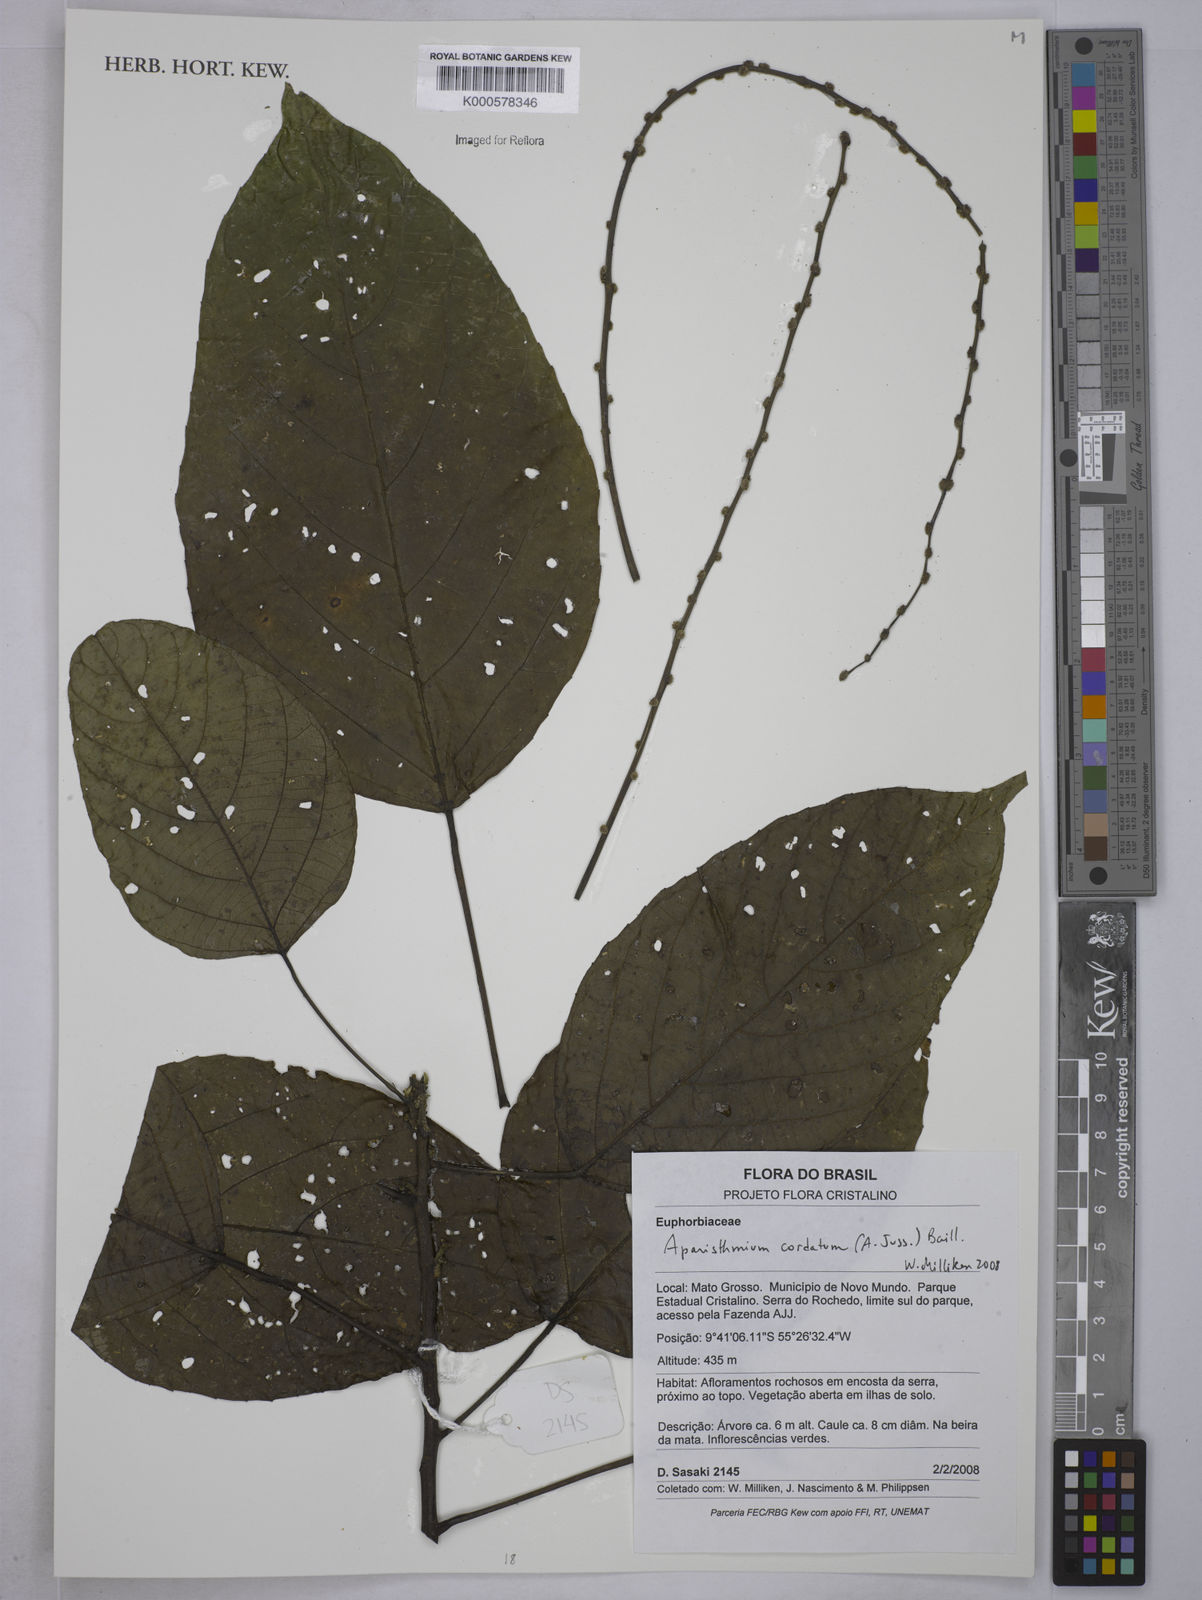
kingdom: Plantae
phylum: Tracheophyta
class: Magnoliopsida
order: Malpighiales
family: Euphorbiaceae
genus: Aparisthmium
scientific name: Aparisthmium cordatum
